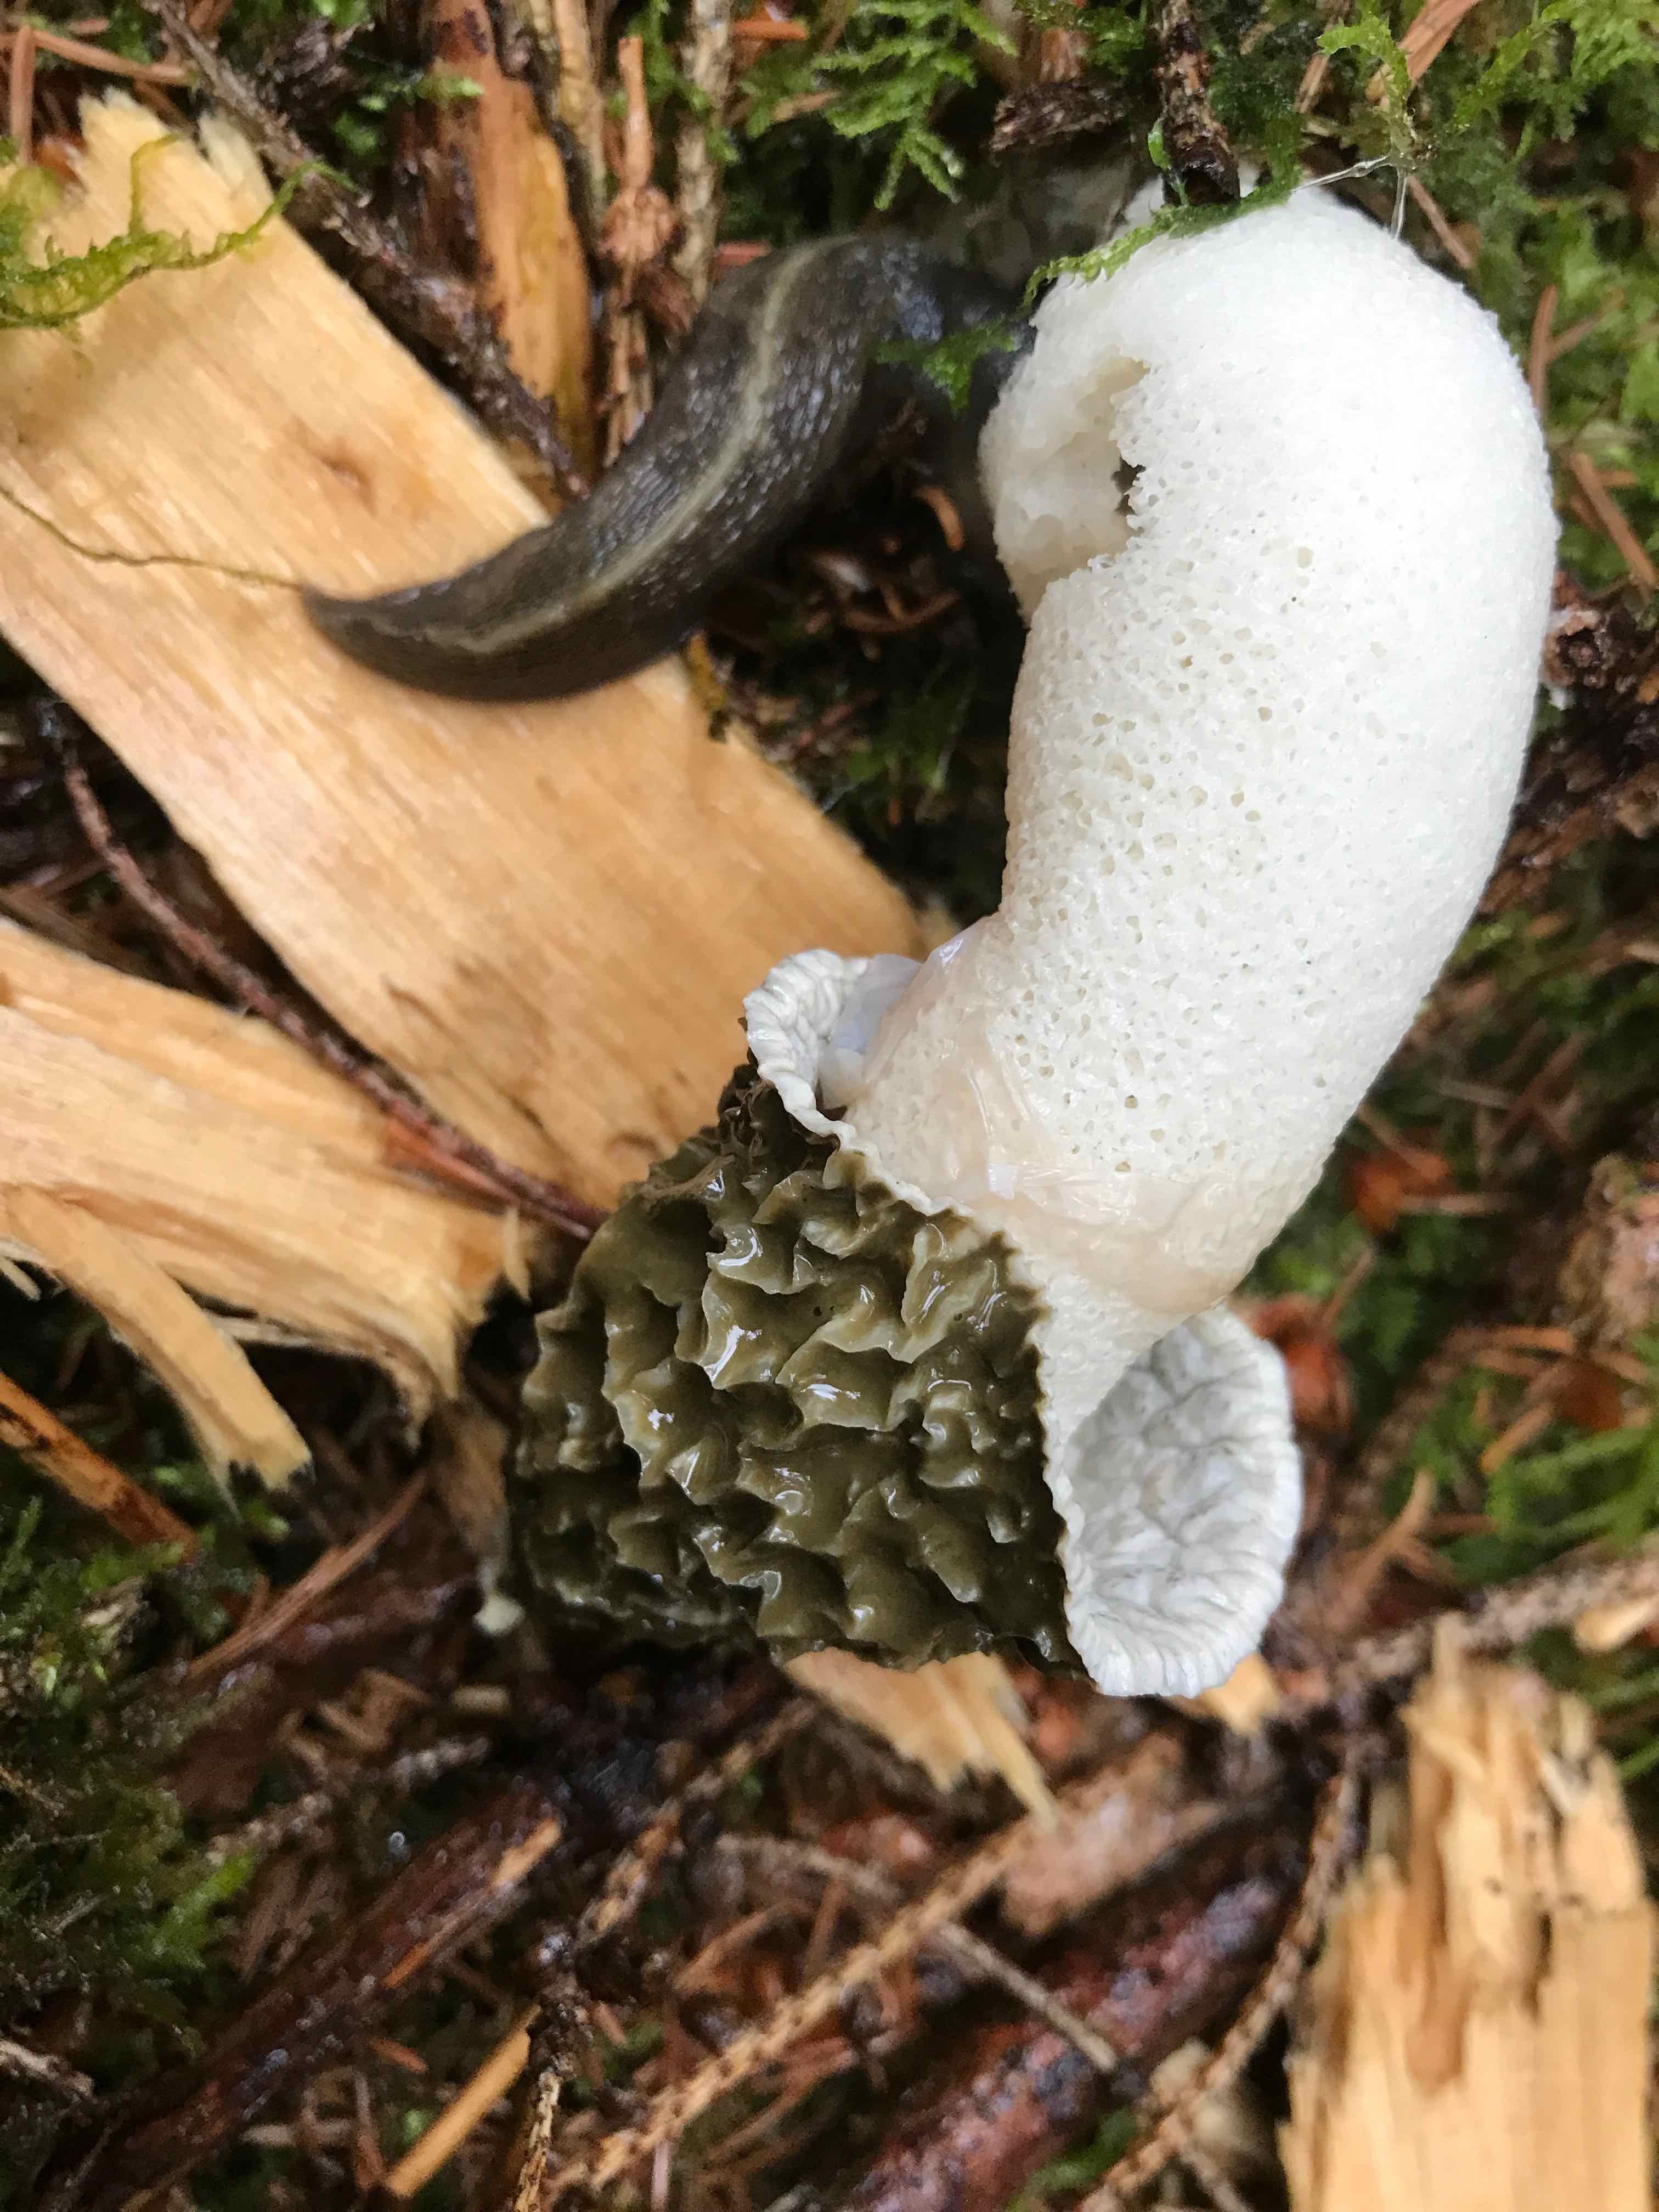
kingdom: Fungi
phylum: Basidiomycota
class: Agaricomycetes
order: Phallales
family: Phallaceae
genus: Phallus
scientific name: Phallus impudicus
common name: almindelig stinksvamp
